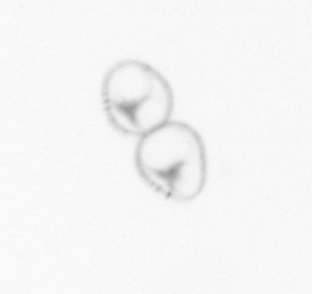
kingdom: Chromista
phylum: Ochrophyta
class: Bacillariophyceae
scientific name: Bacillariophyceae
